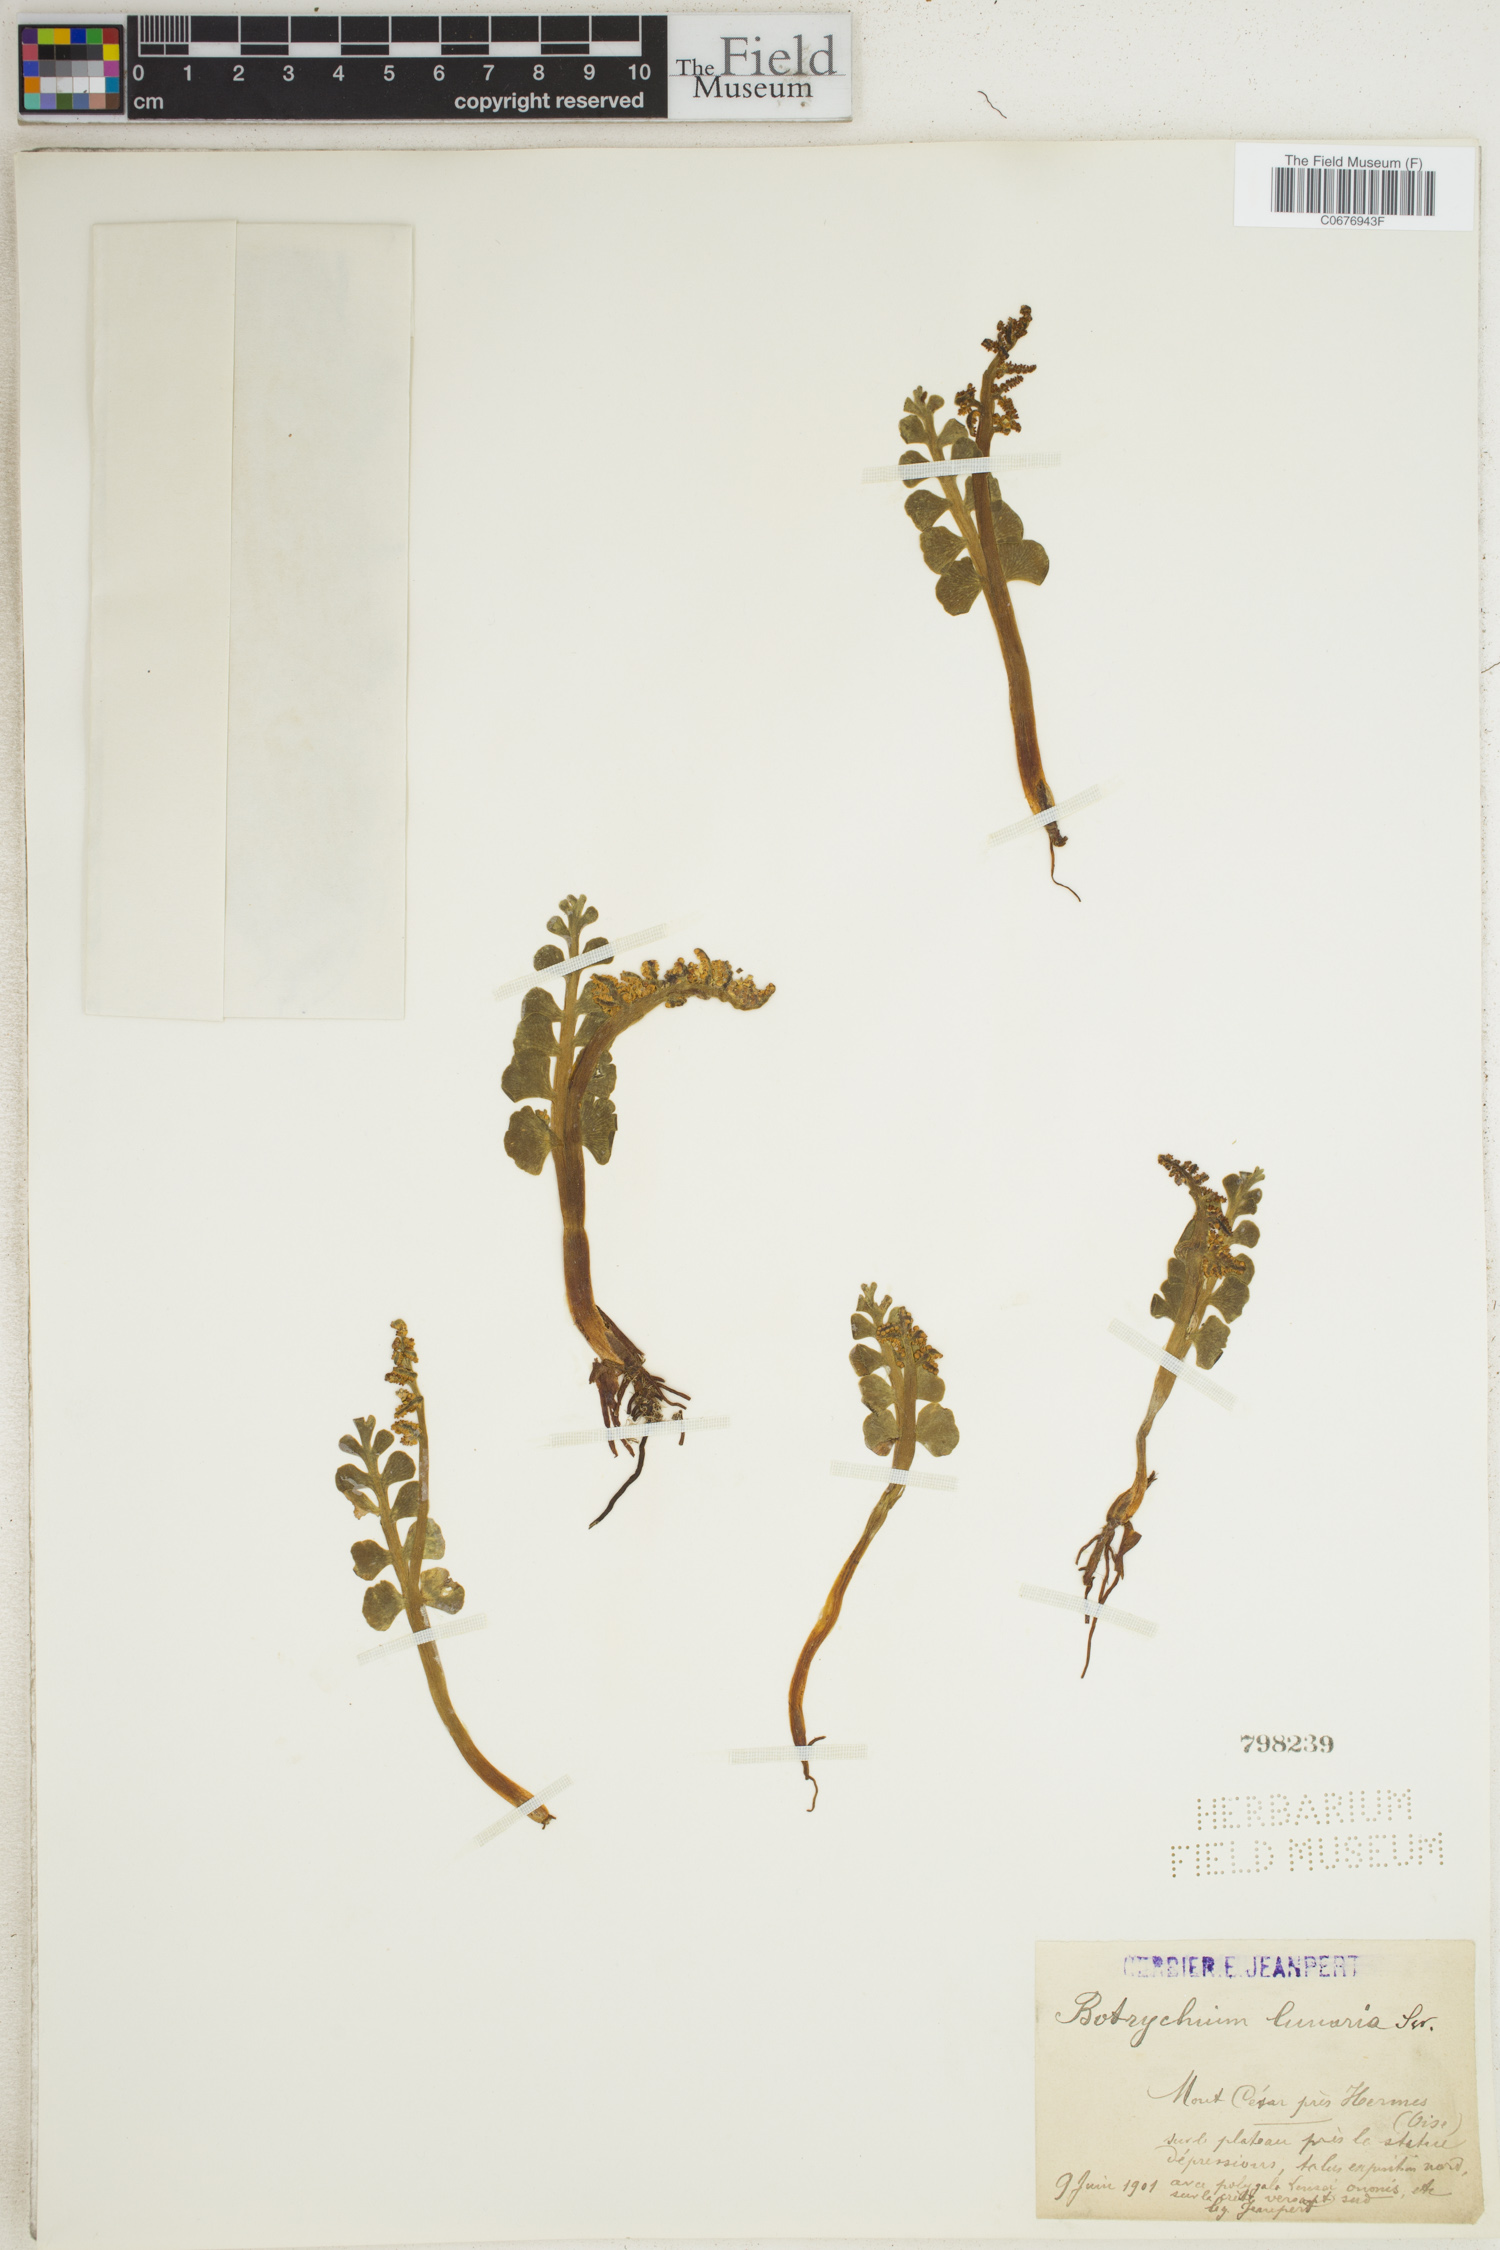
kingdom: Plantae
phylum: Tracheophyta
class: Polypodiopsida
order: Ophioglossales
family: Ophioglossaceae
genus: Botrychium
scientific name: Botrychium lunaria
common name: Moonwort
